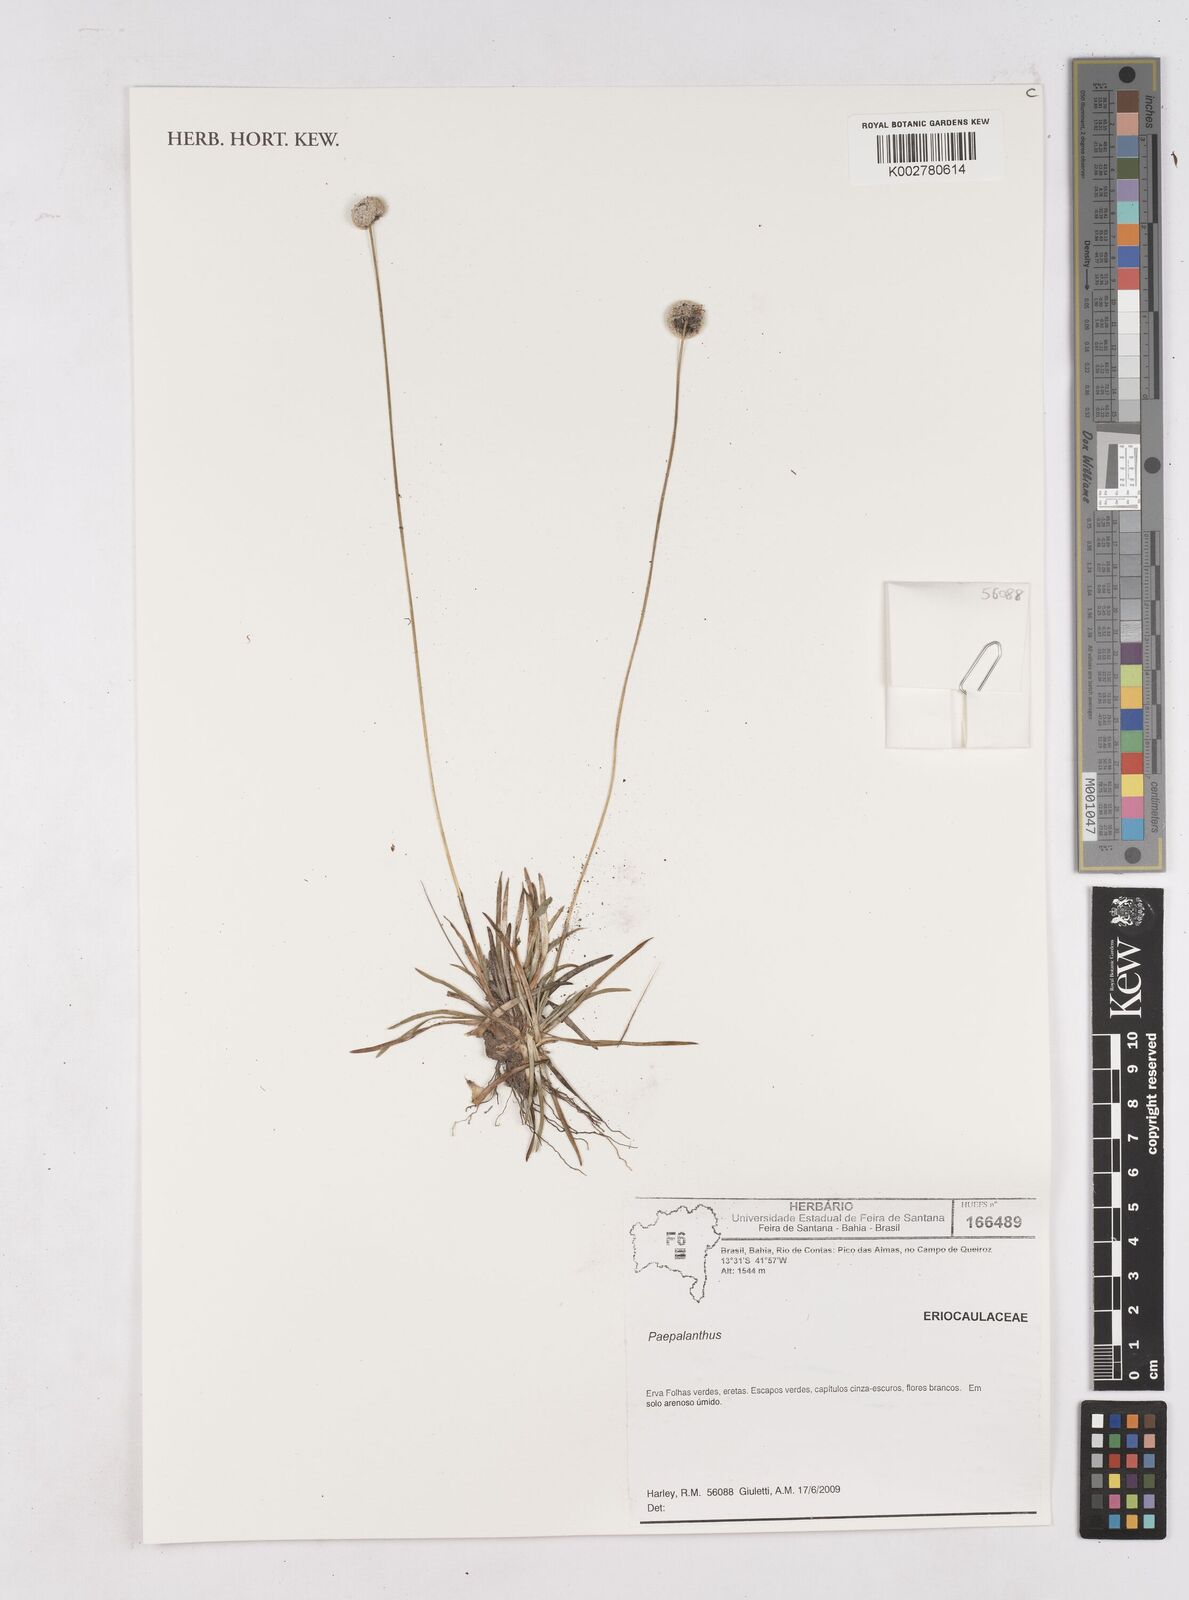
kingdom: Plantae
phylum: Tracheophyta
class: Liliopsida
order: Poales
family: Eriocaulaceae
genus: Paepalanthus
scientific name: Paepalanthus
